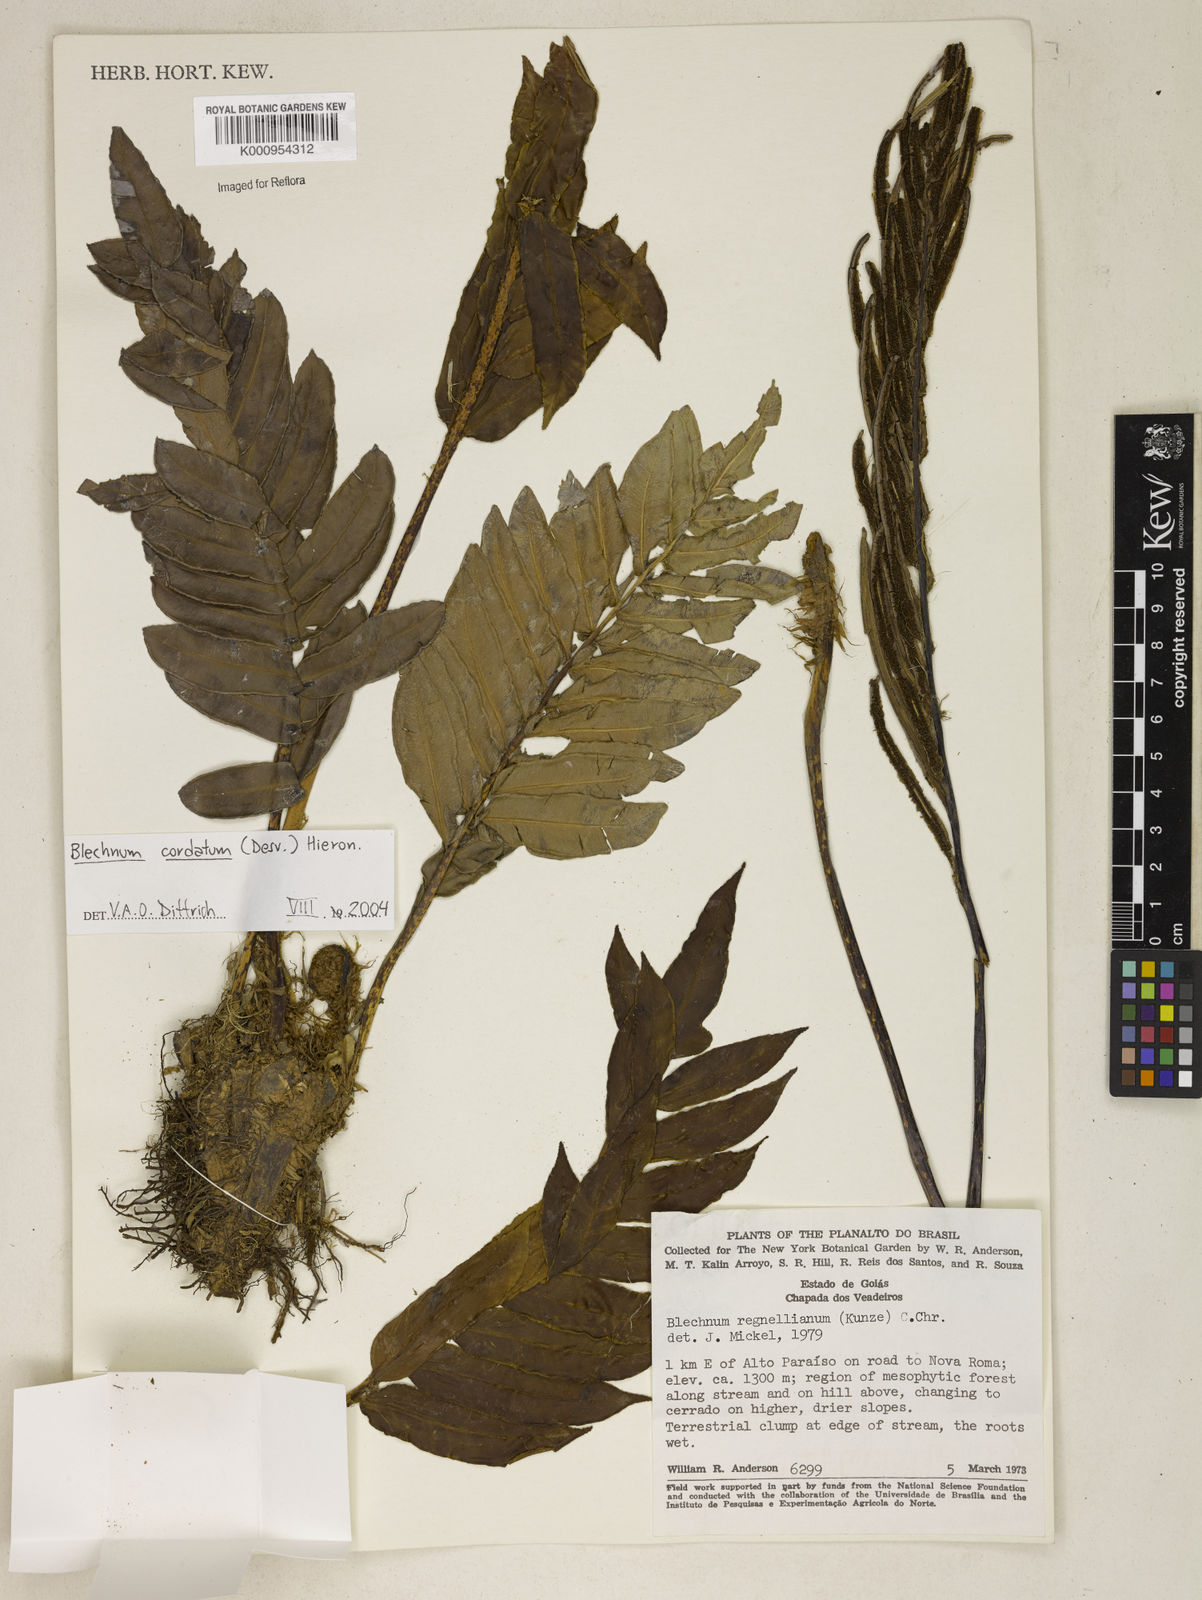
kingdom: Plantae
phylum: Tracheophyta
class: Polypodiopsida
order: Polypodiales
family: Blechnaceae
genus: Parablechnum
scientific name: Parablechnum cordatum
